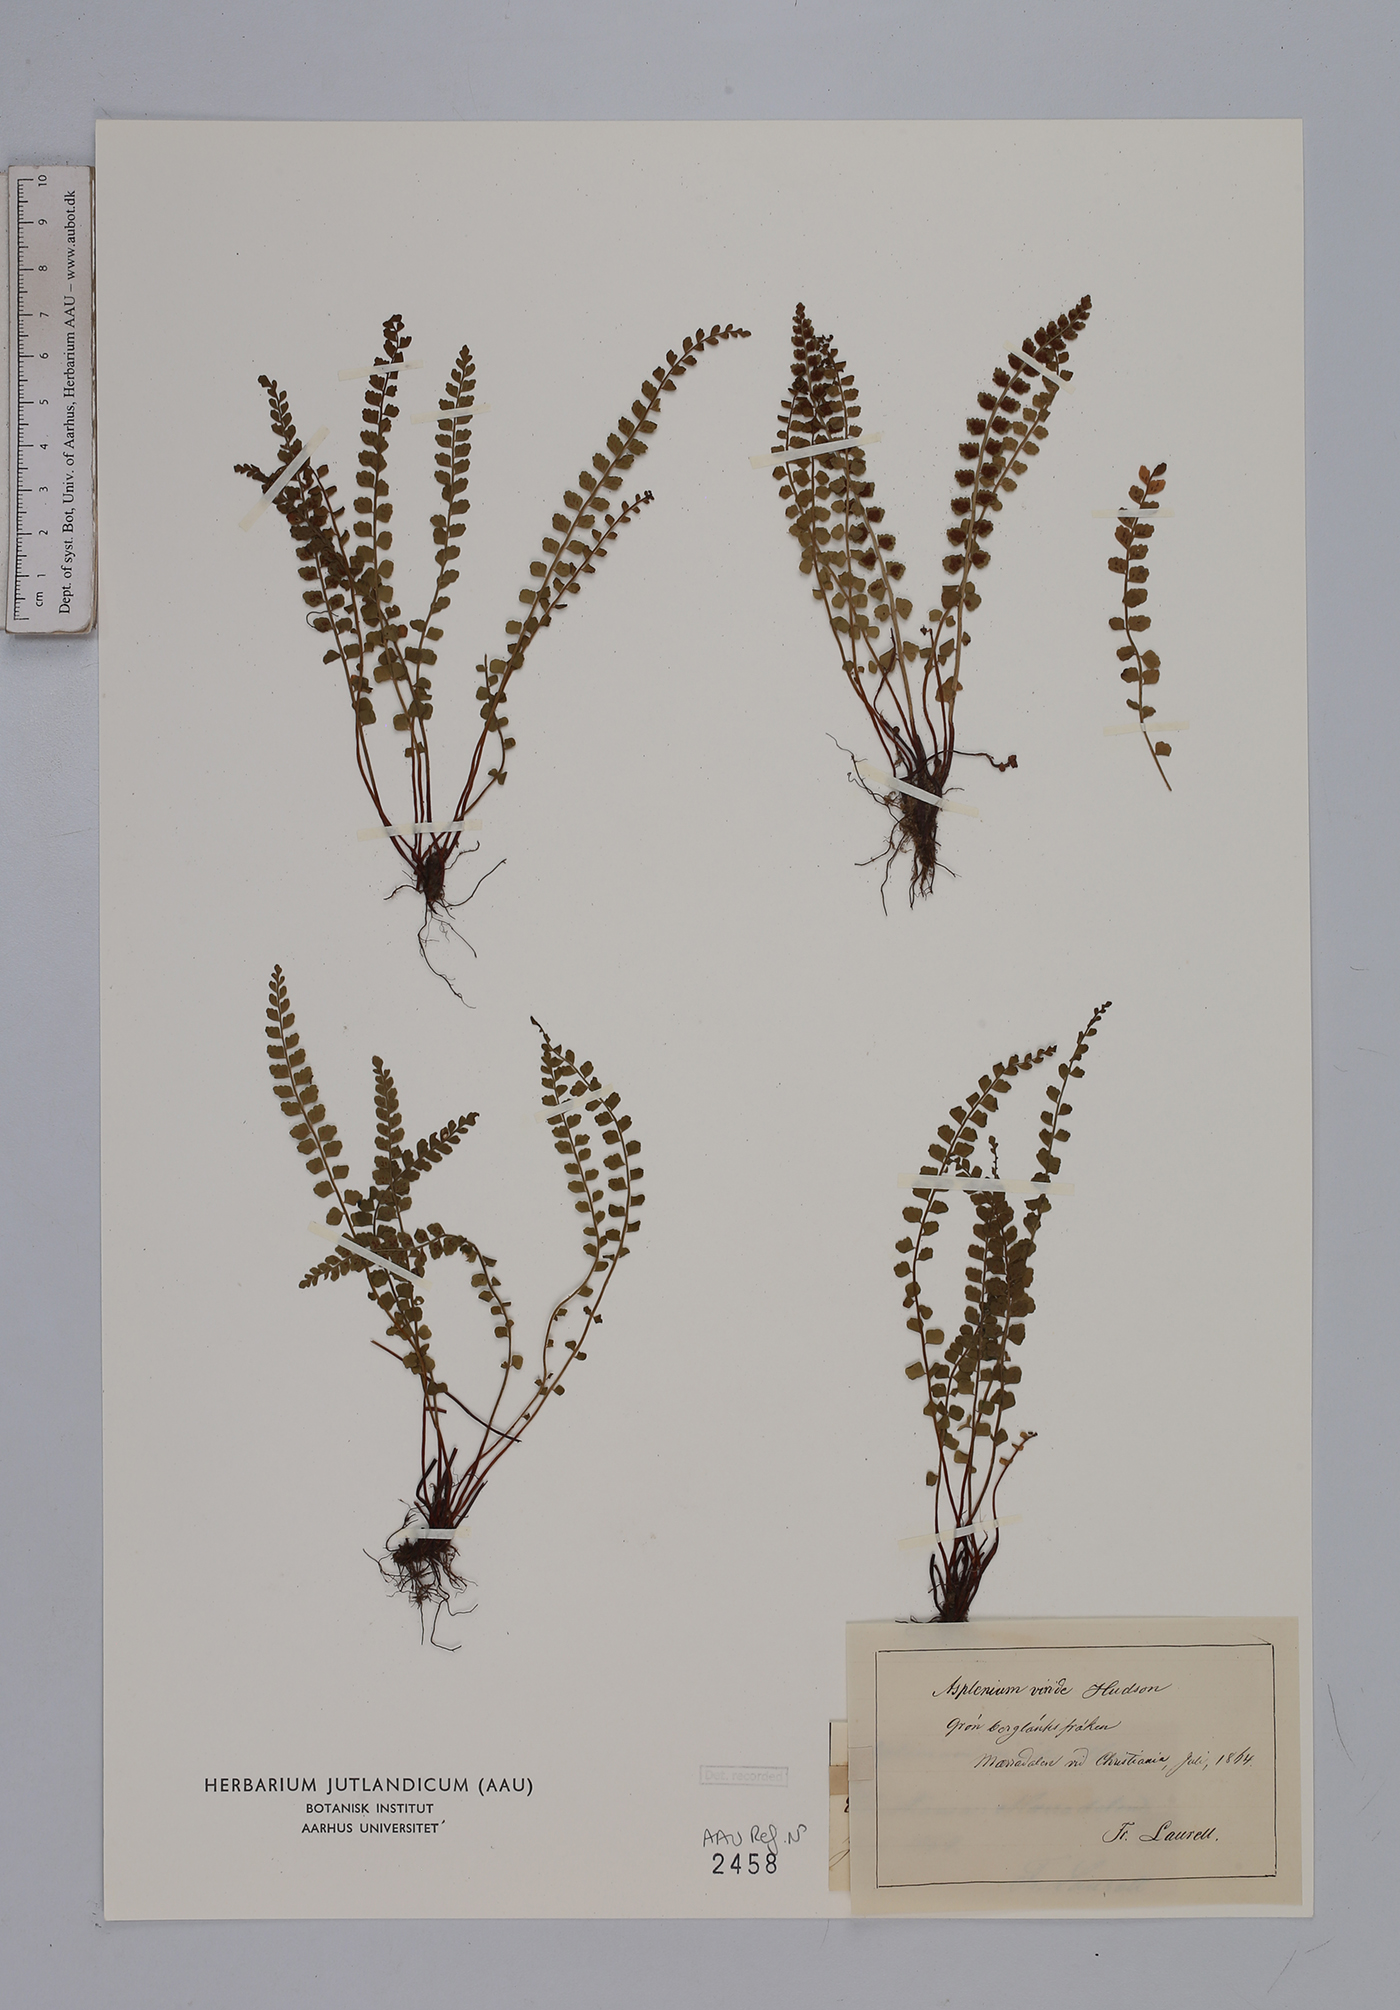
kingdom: Plantae
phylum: Tracheophyta
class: Polypodiopsida
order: Polypodiales
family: Aspleniaceae
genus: Asplenium
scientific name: Asplenium viride
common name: Green spleenwort
